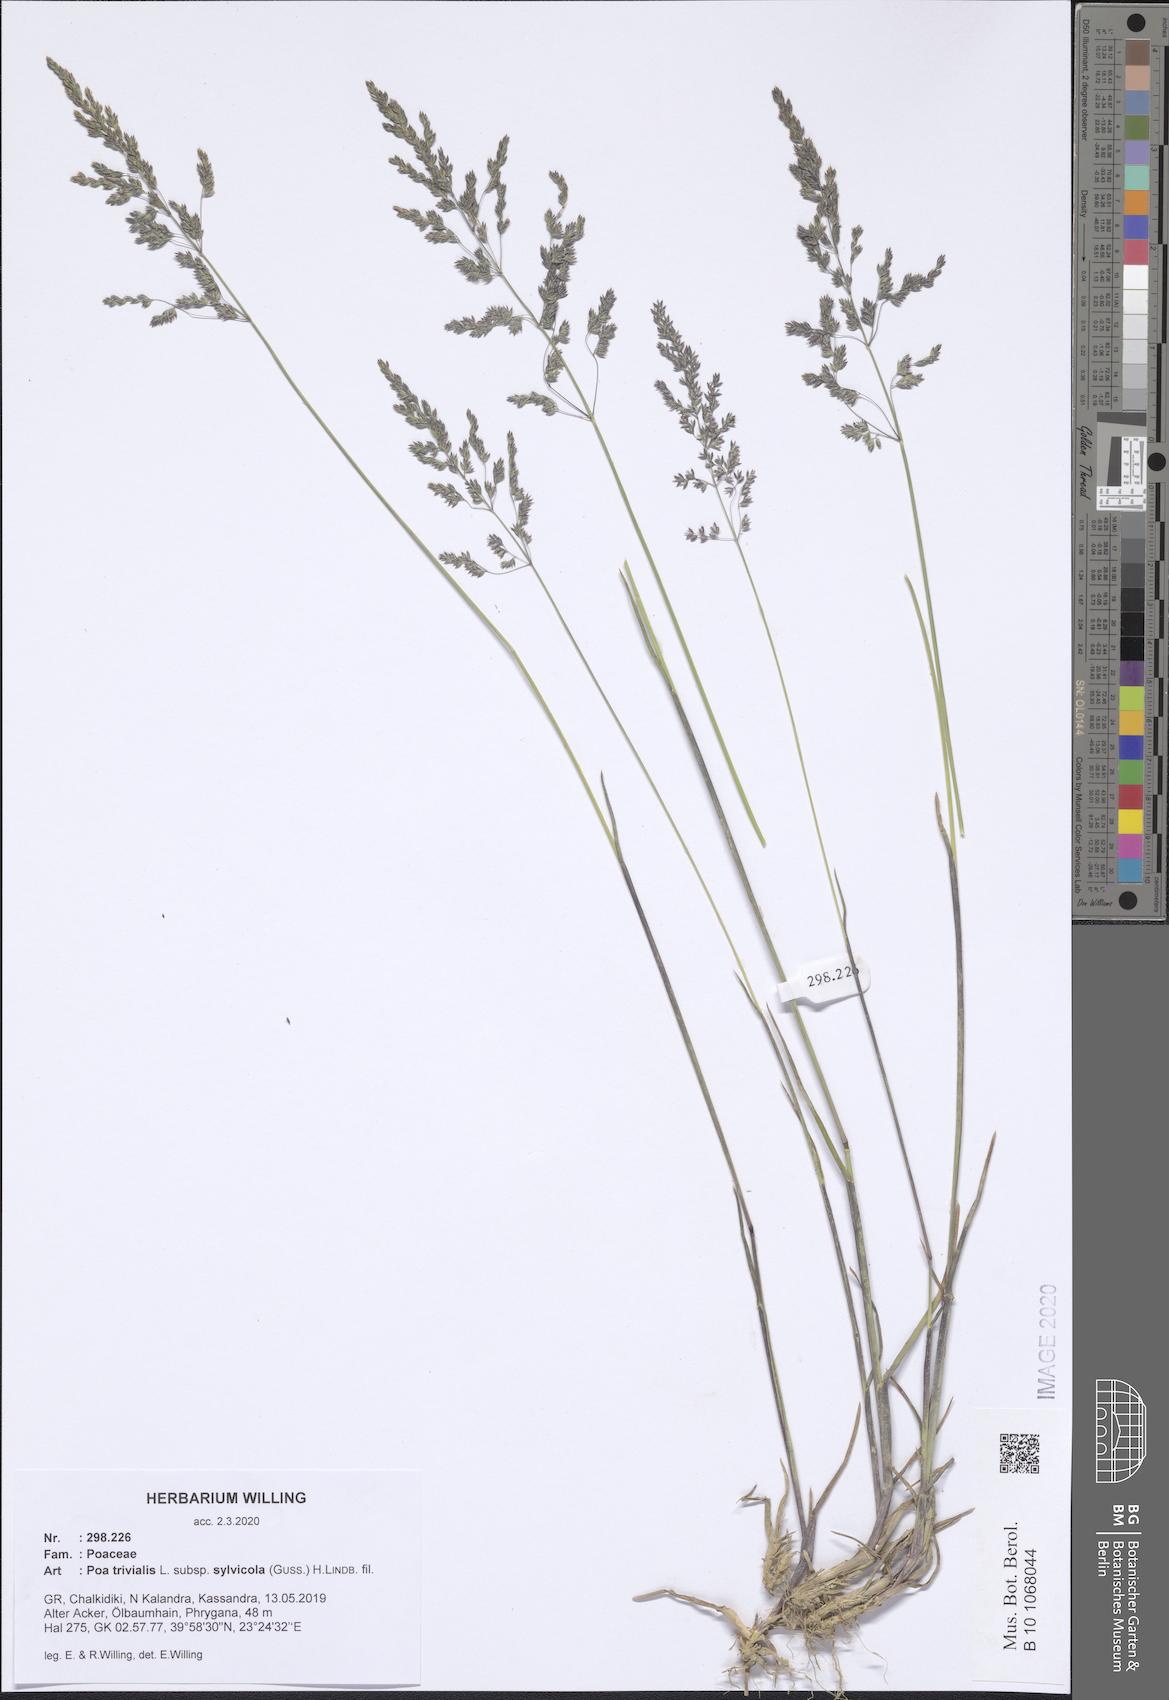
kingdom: Plantae
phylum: Tracheophyta
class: Liliopsida
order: Poales
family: Poaceae
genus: Poa
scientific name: Poa trivialis
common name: Rough bluegrass
